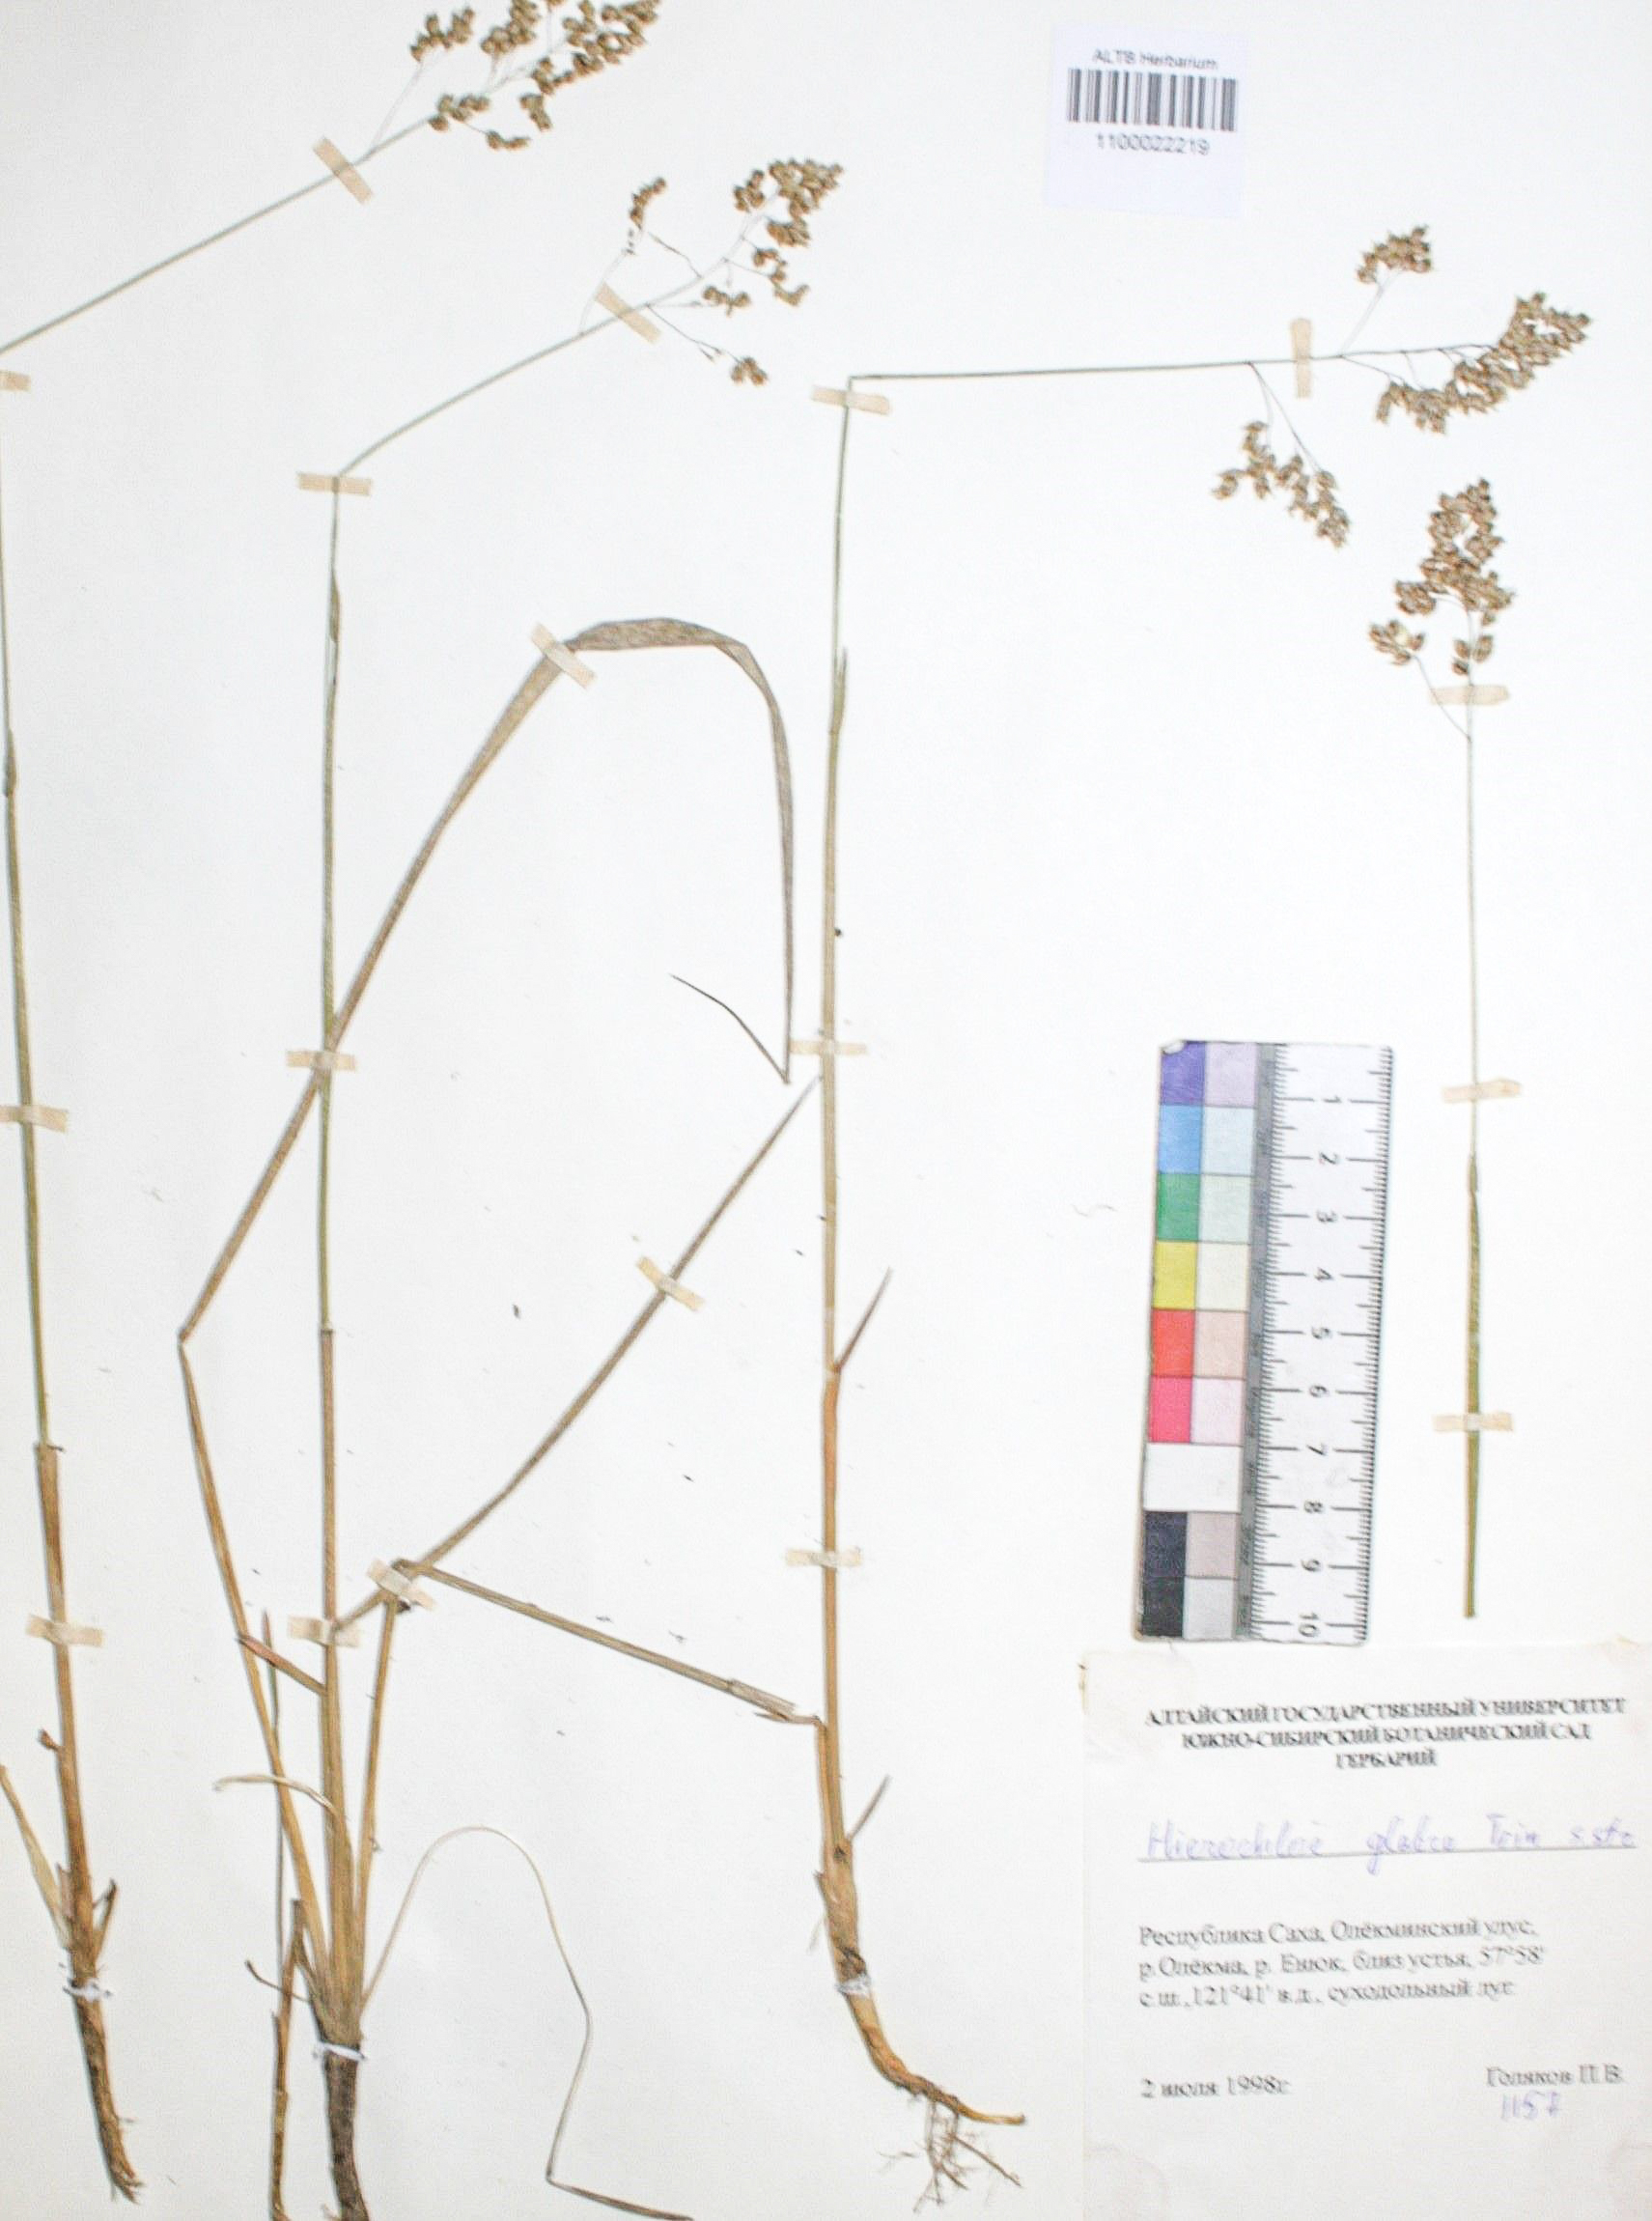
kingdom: Plantae
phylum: Tracheophyta
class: Liliopsida
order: Poales
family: Poaceae
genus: Anthoxanthum
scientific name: Anthoxanthum glabrum
